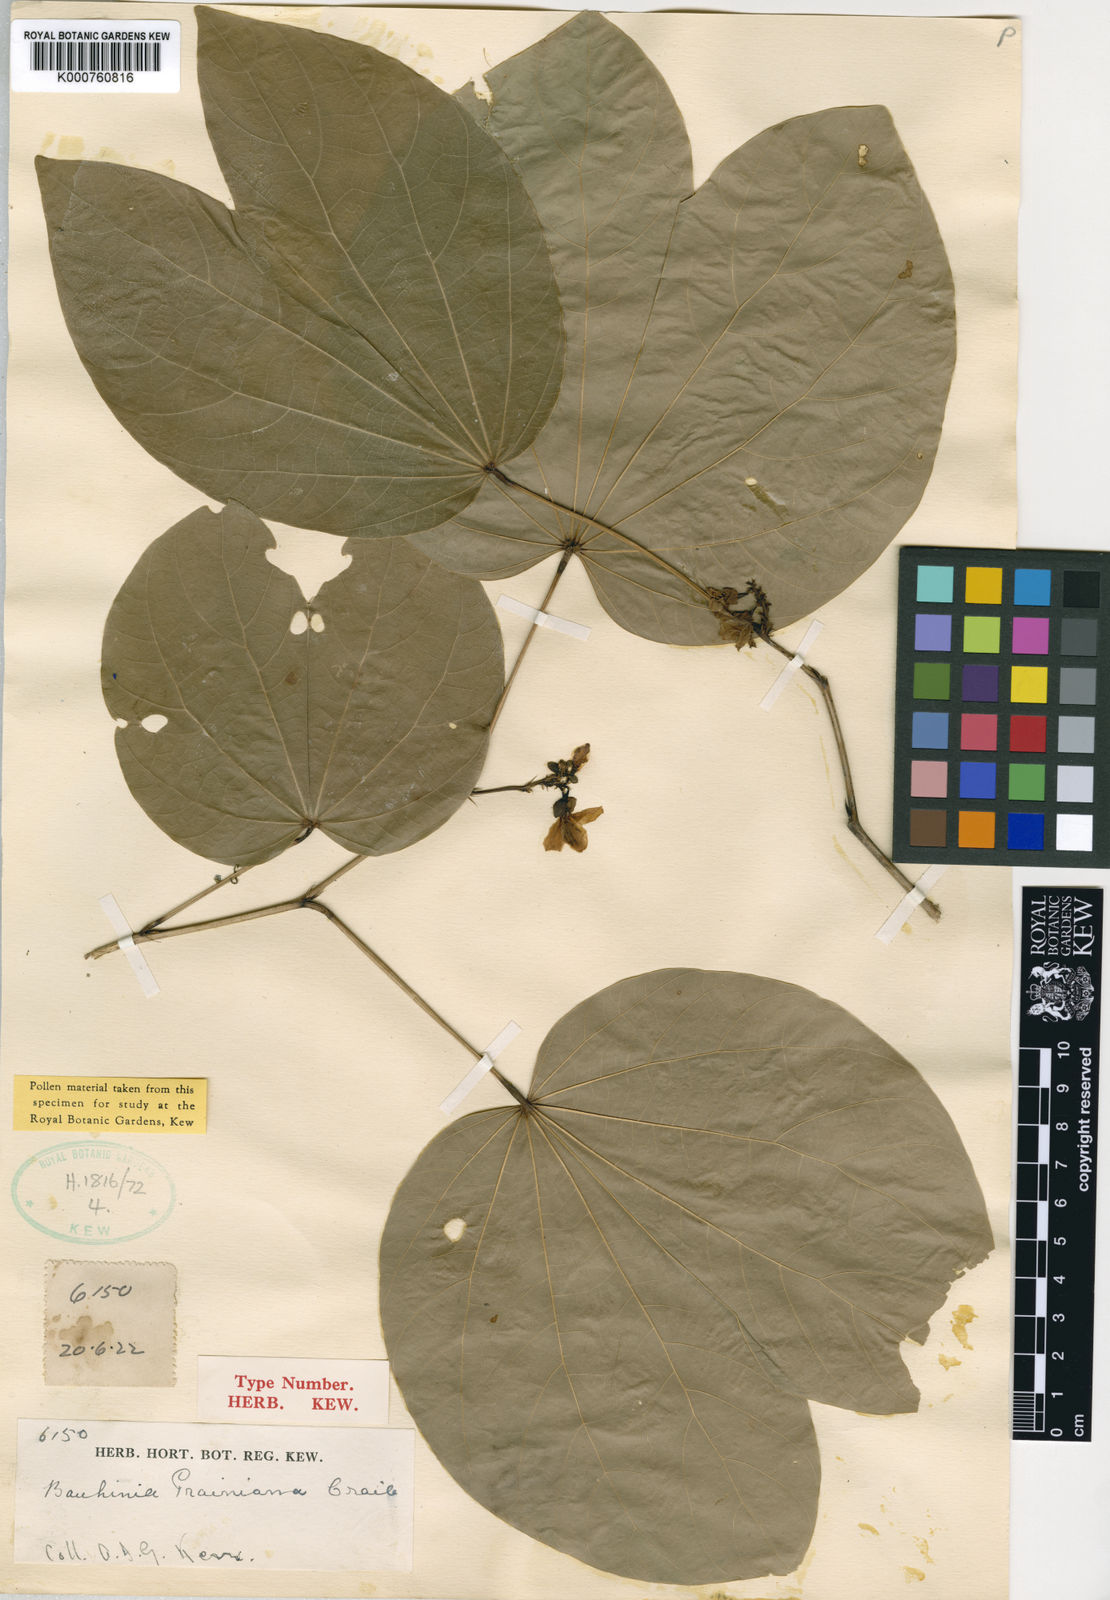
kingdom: Plantae
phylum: Tracheophyta
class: Magnoliopsida
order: Fabales
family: Fabaceae
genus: Bauhinia
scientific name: Bauhinia prainiana
